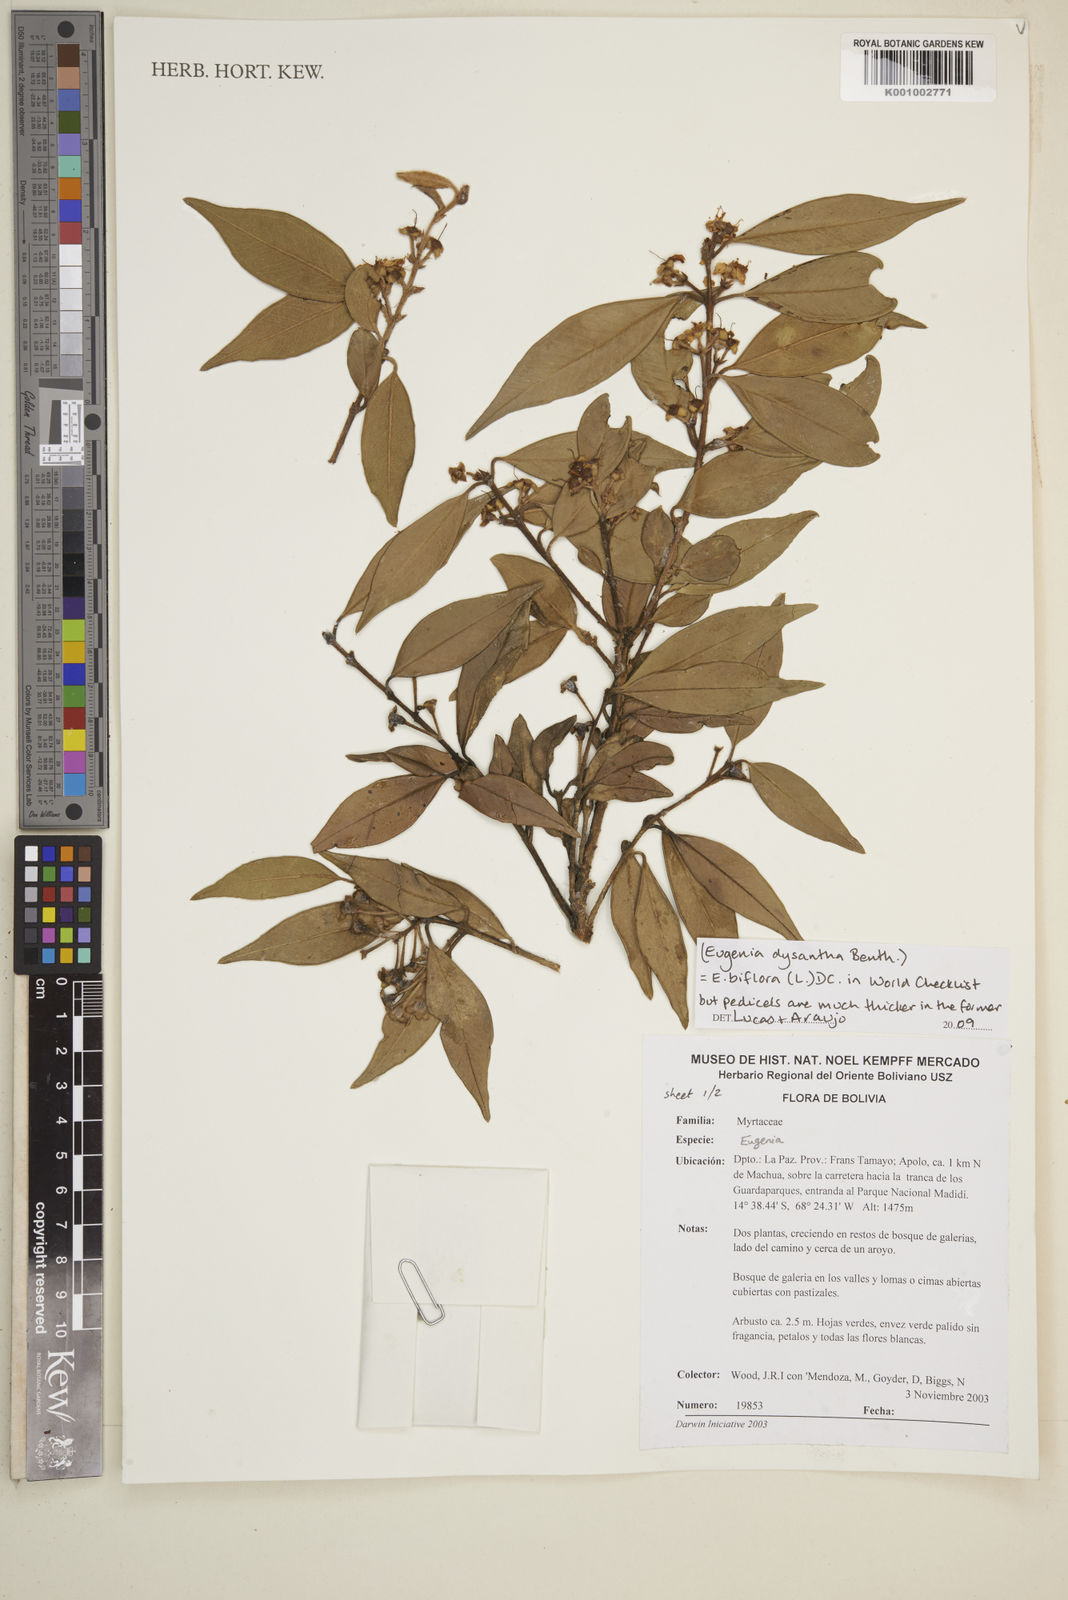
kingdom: Plantae
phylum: Tracheophyta
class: Magnoliopsida
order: Myrtales
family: Myrtaceae
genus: Eugenia
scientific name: Eugenia biflora
